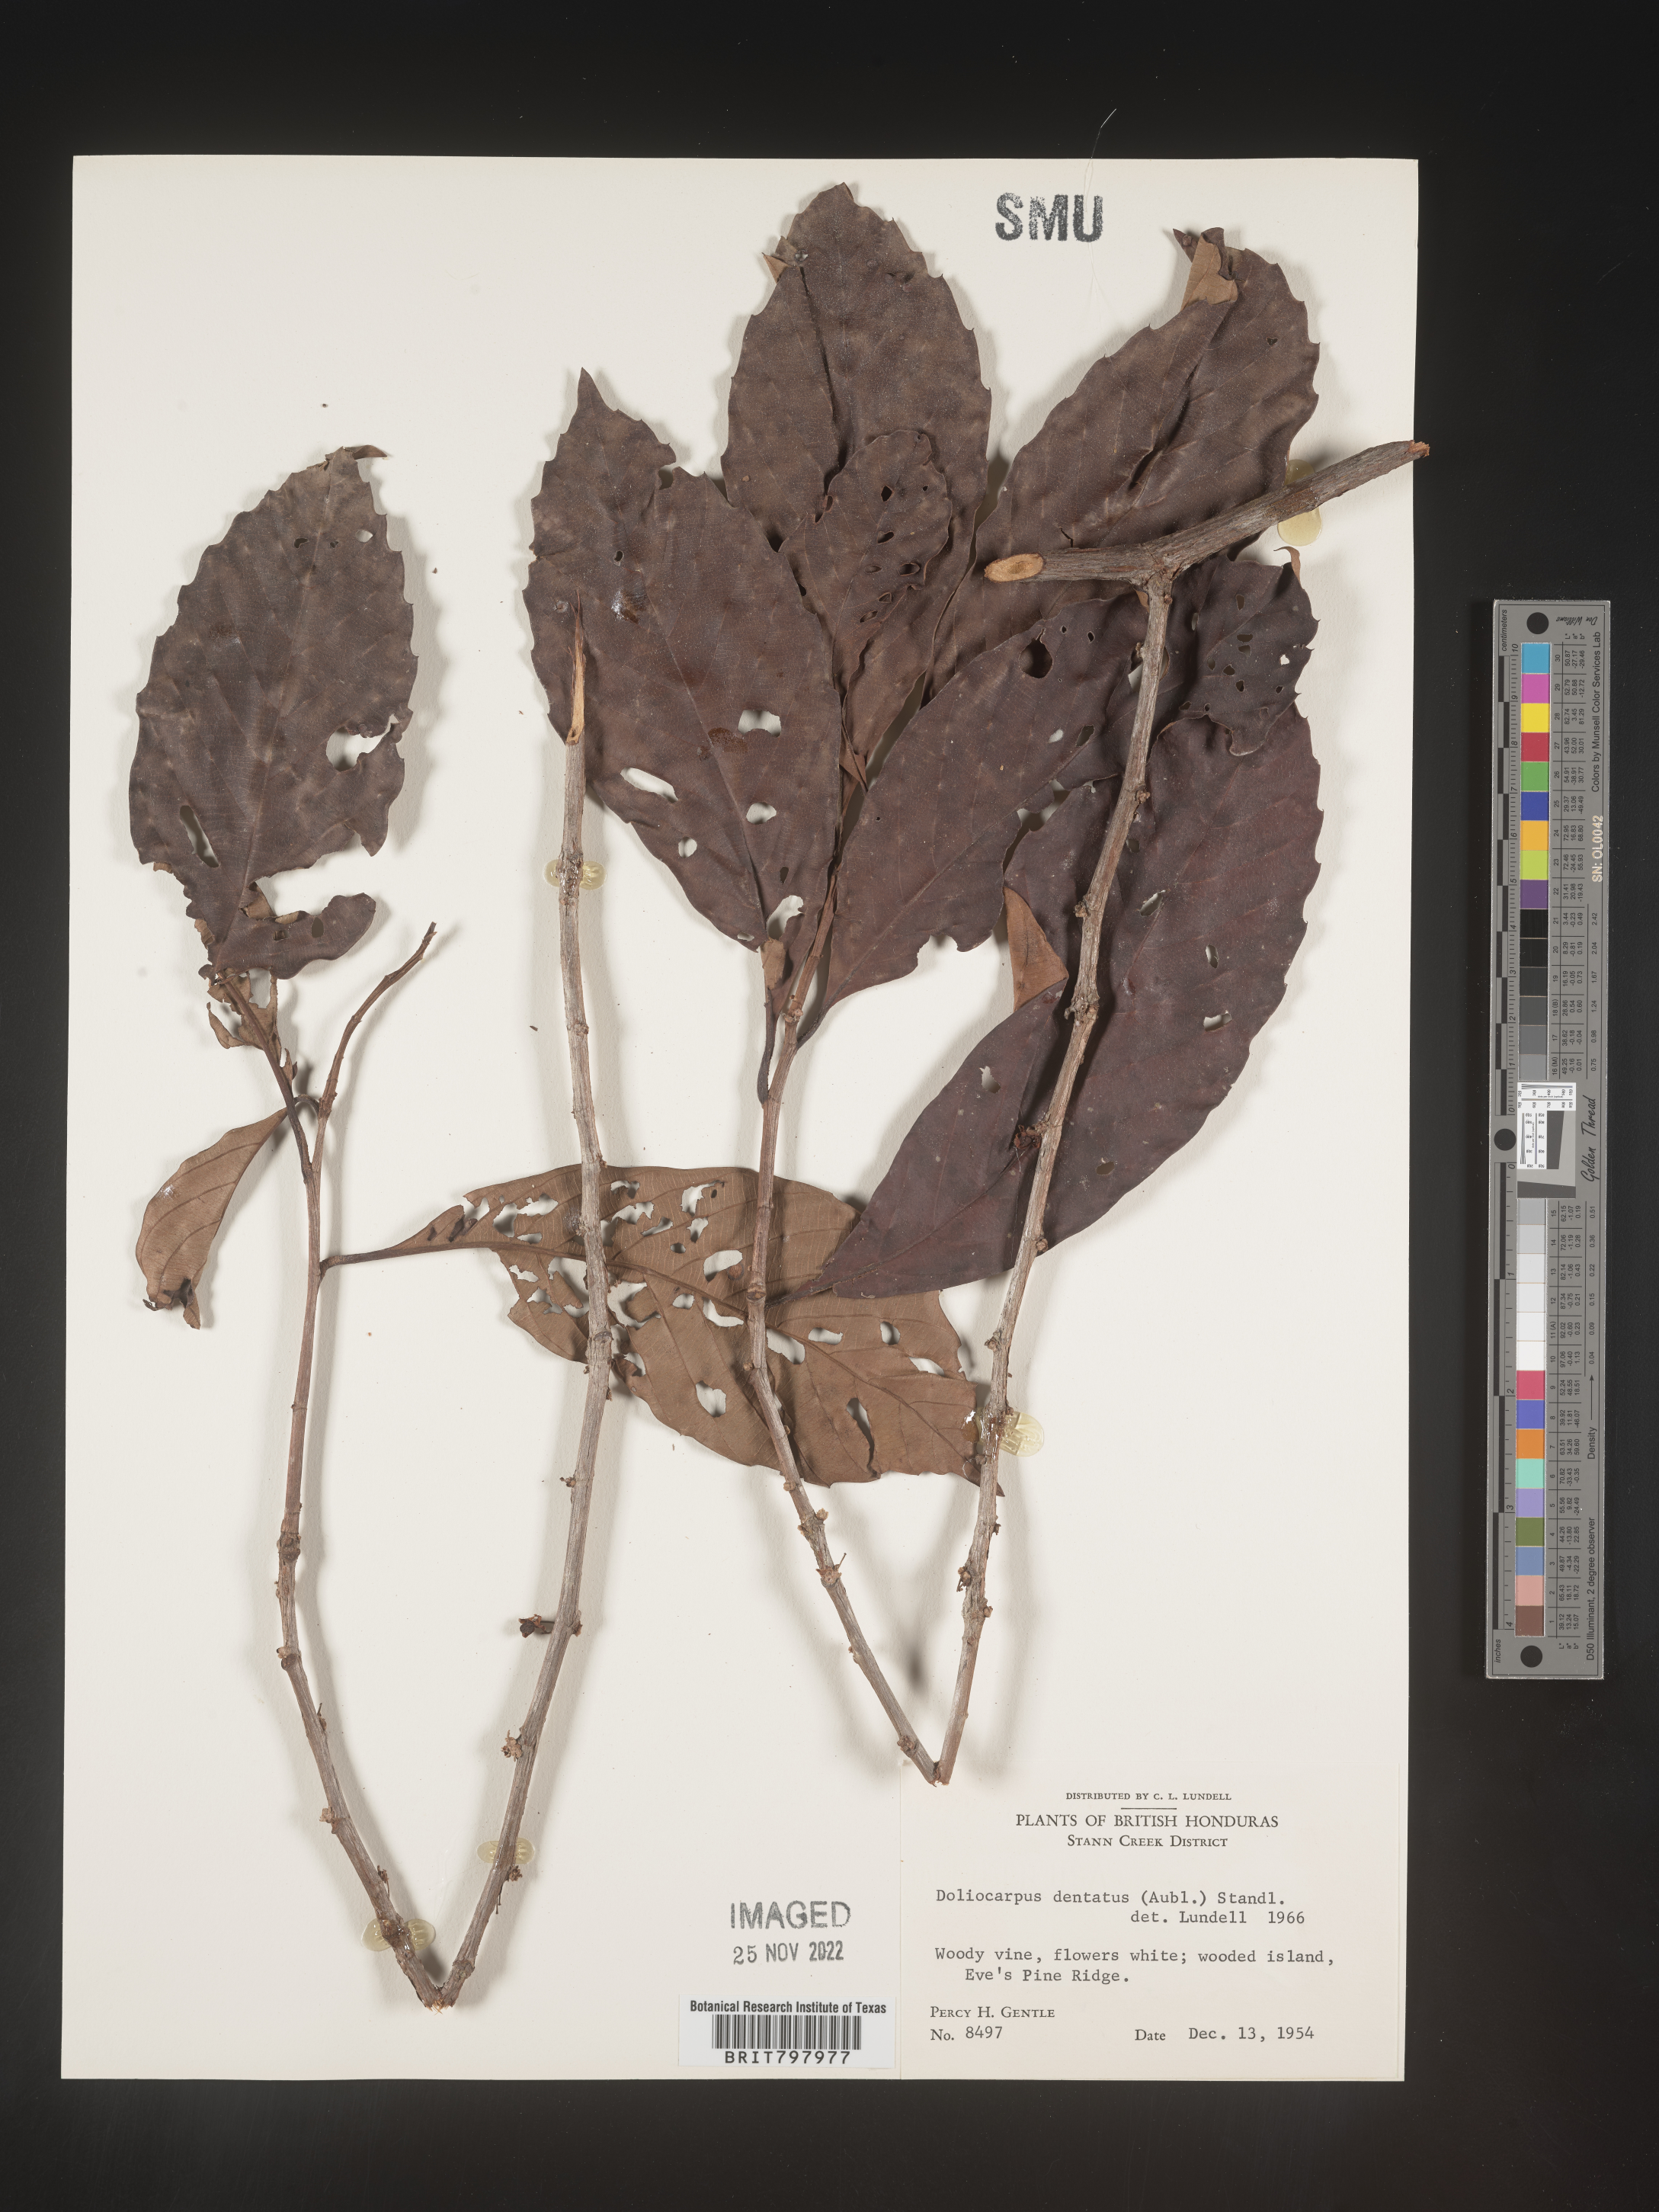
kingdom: Plantae
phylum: Tracheophyta
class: Magnoliopsida
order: Dilleniales
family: Dilleniaceae
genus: Doliocarpus
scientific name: Doliocarpus
